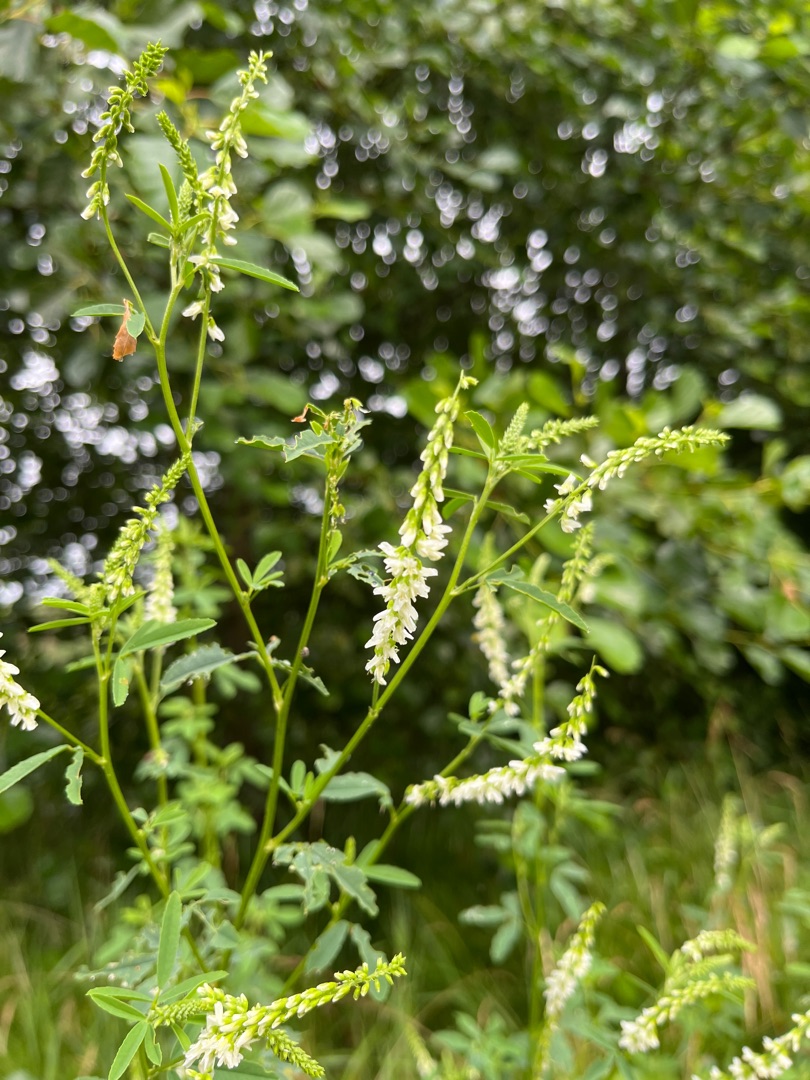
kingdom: Plantae
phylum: Tracheophyta
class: Magnoliopsida
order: Fabales
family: Fabaceae
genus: Melilotus
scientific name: Melilotus albus
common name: Hvid stenkløver
